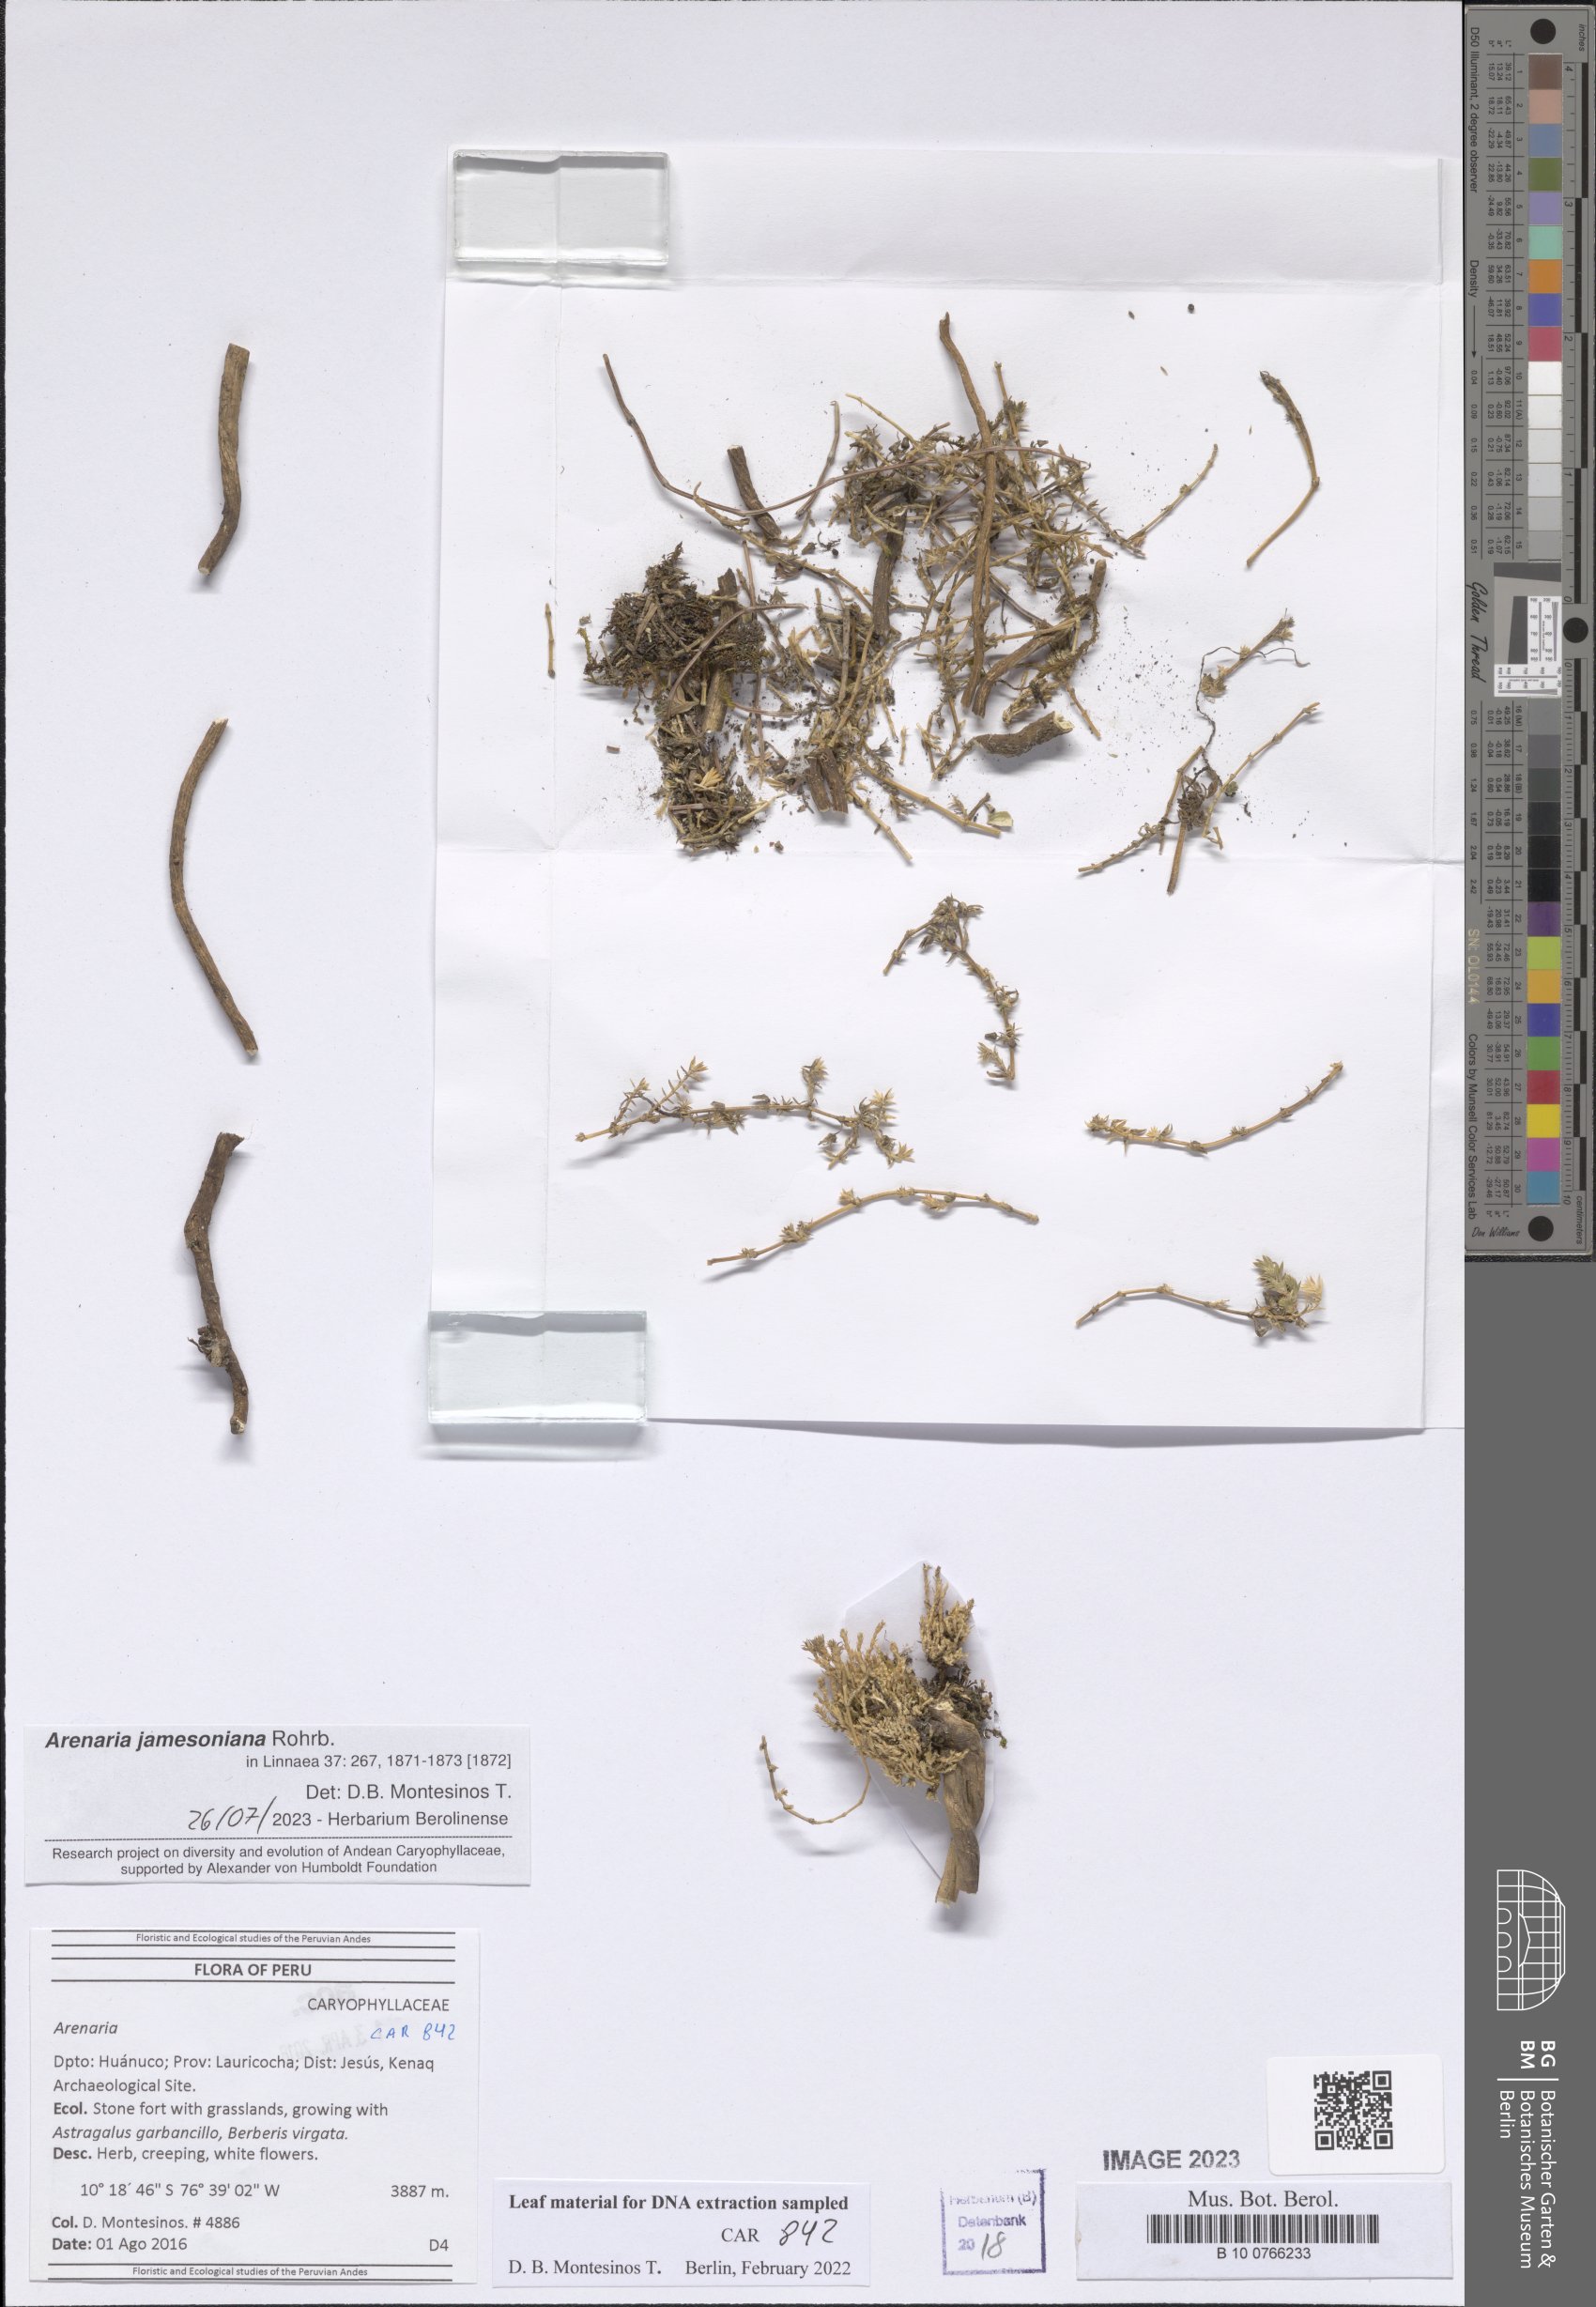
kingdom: Plantae
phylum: Tracheophyta
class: Magnoliopsida
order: Caryophyllales
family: Caryophyllaceae
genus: Arenaria
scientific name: Arenaria
